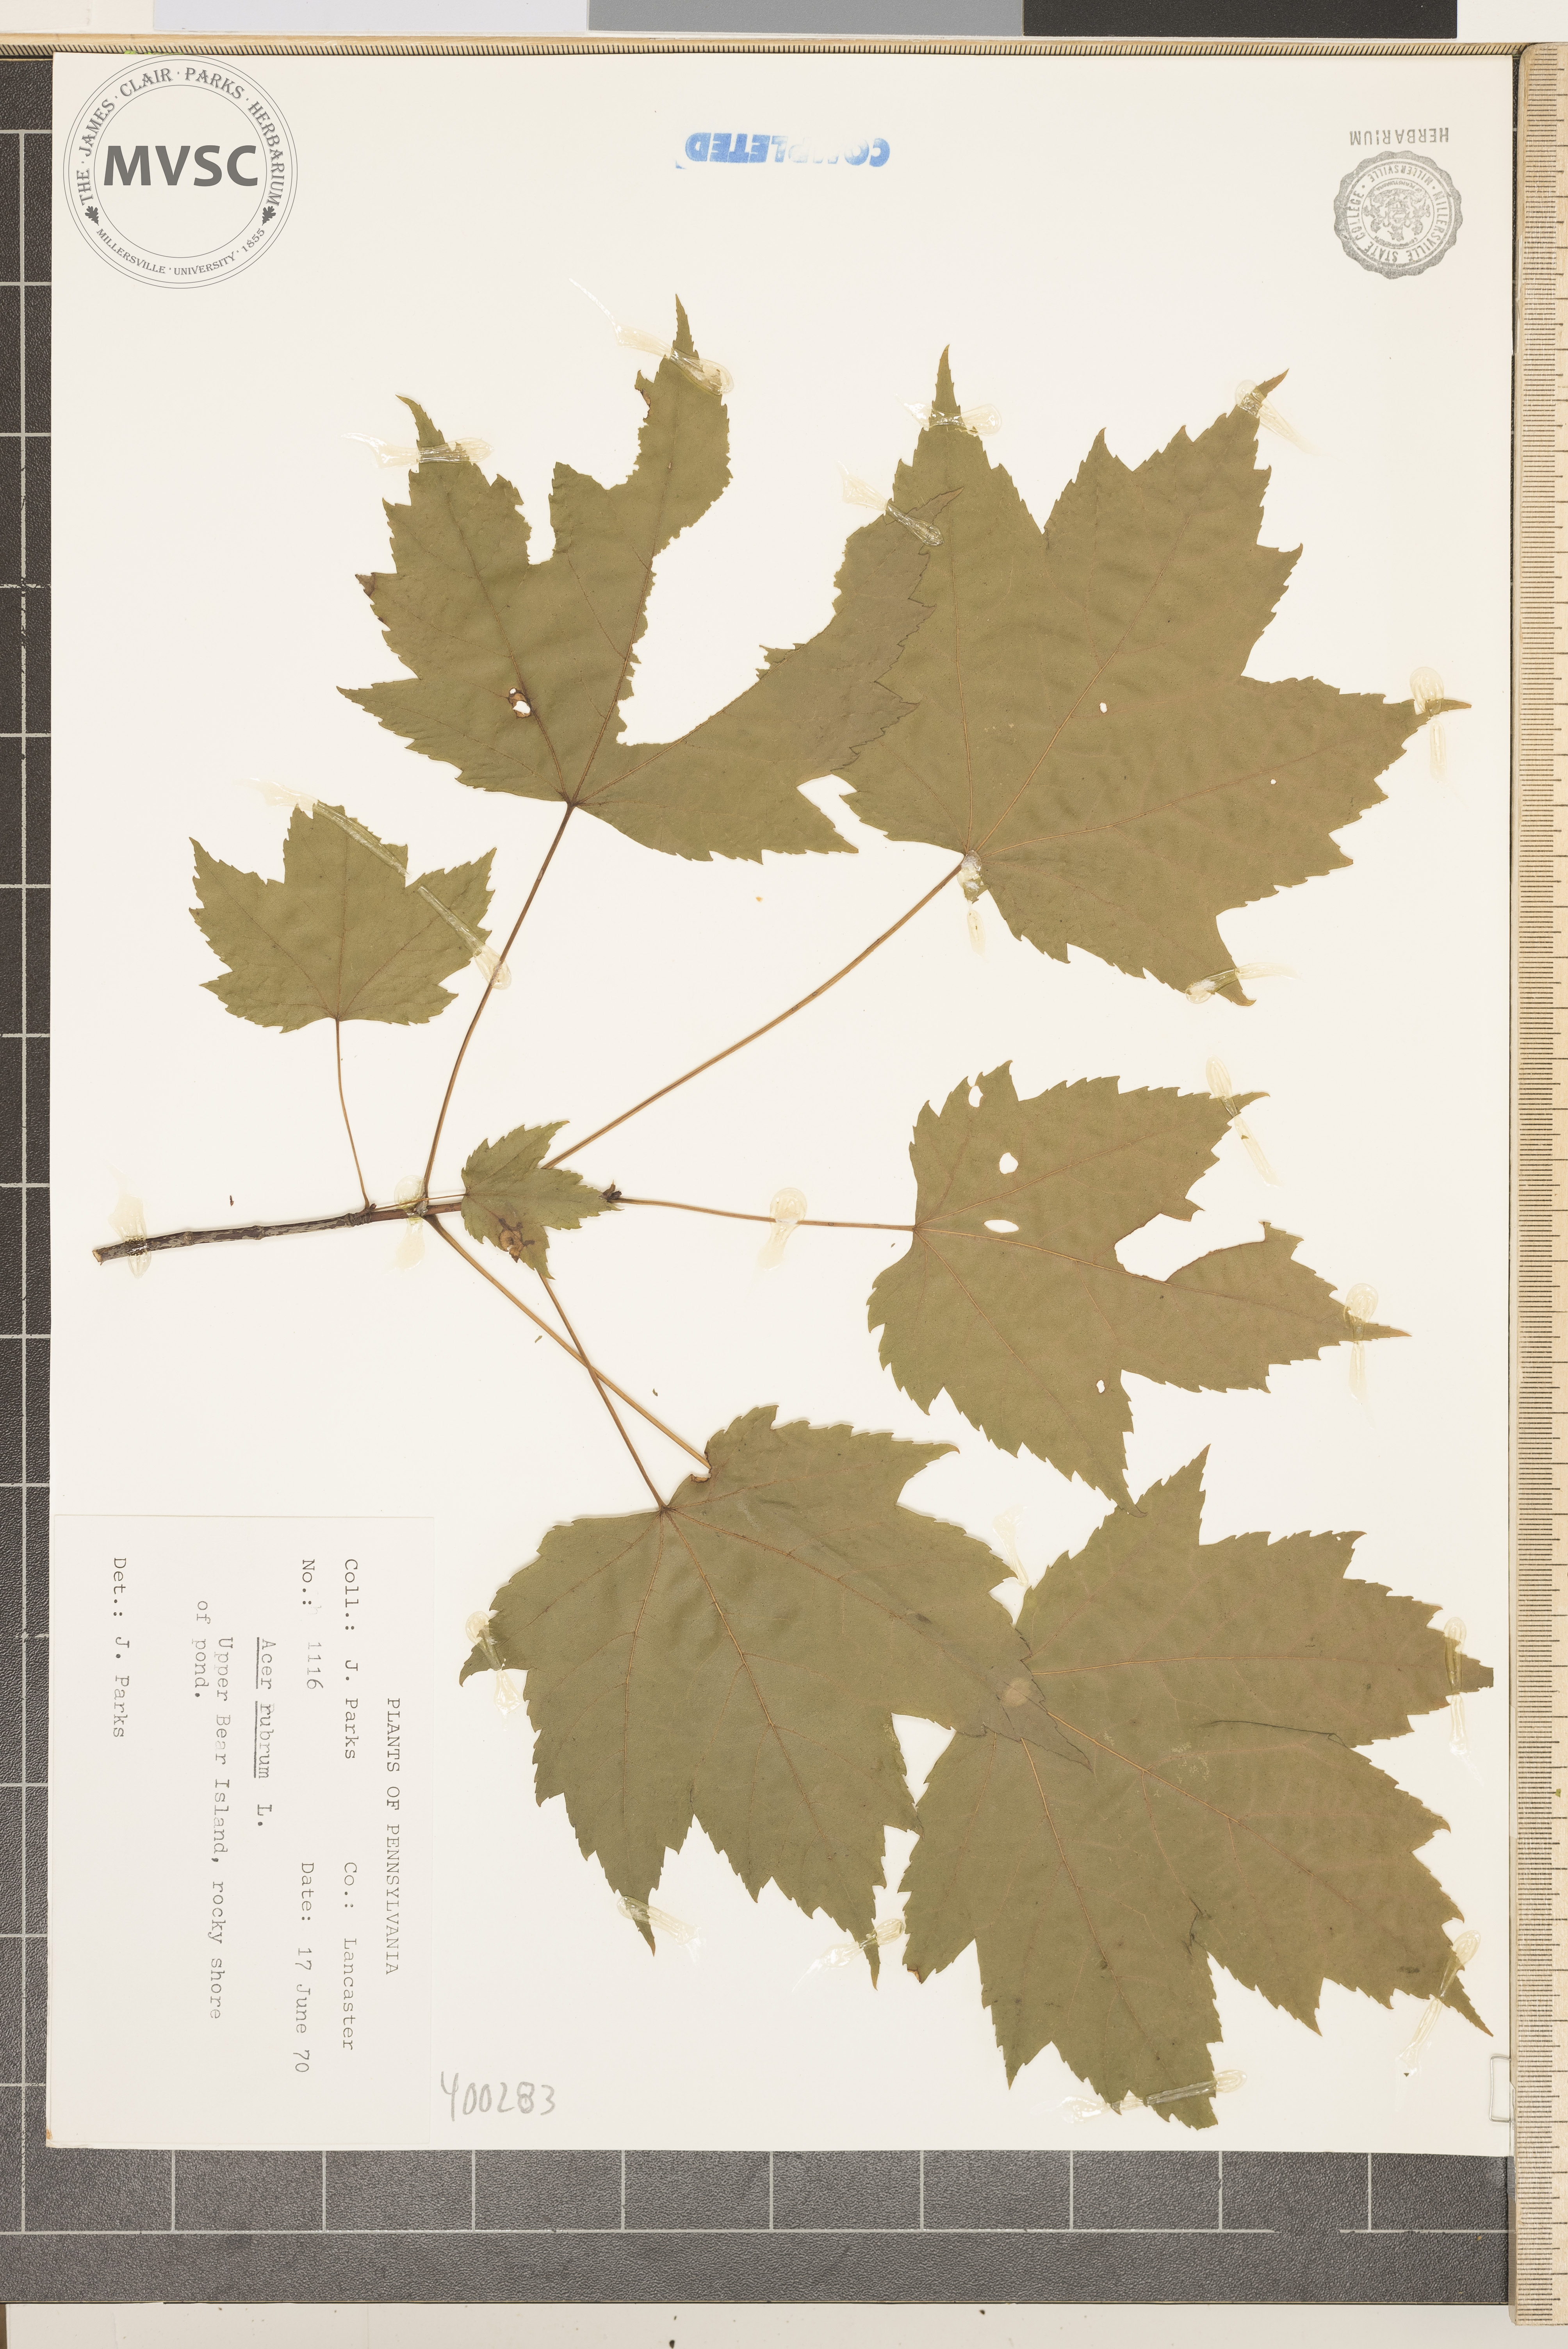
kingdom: Plantae
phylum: Tracheophyta
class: Magnoliopsida
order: Sapindales
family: Sapindaceae
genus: Acer
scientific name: Acer rubrum
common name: red maple
